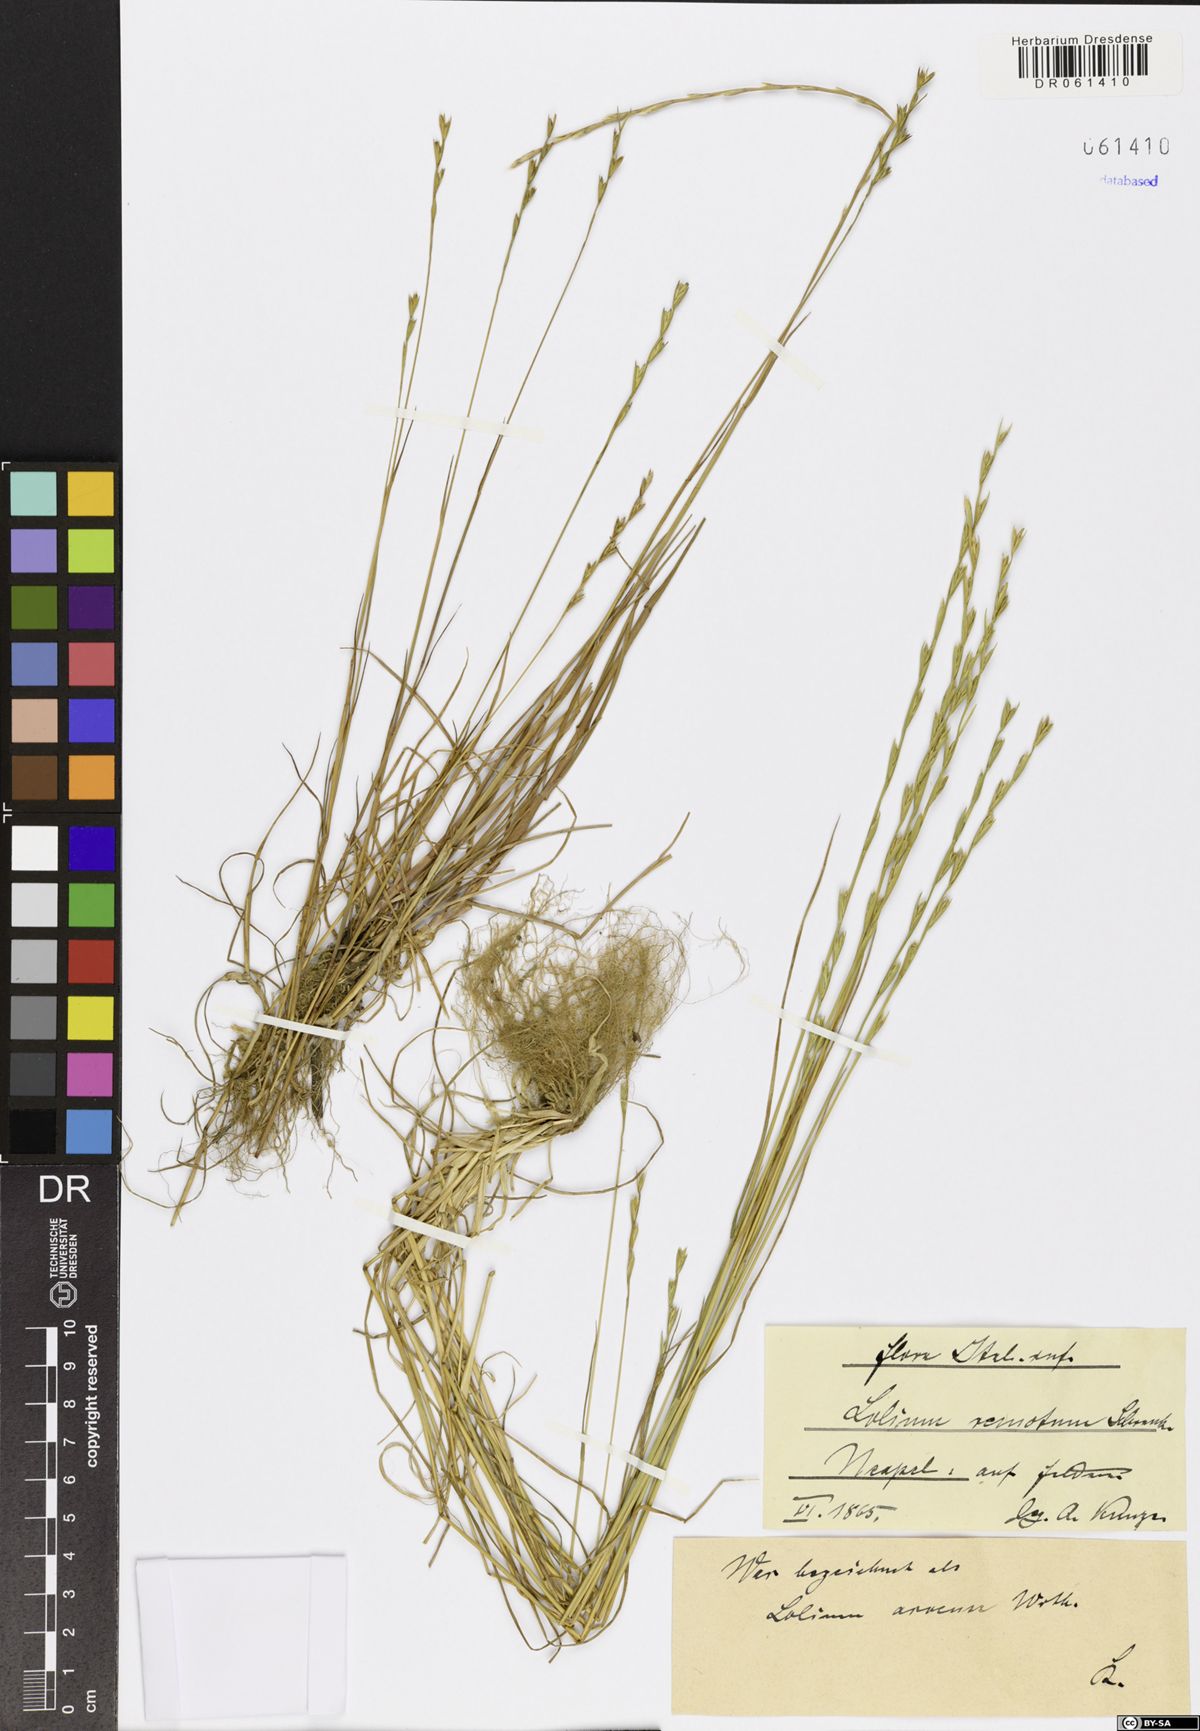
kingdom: Plantae
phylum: Tracheophyta
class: Liliopsida
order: Poales
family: Poaceae
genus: Lolium
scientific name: Lolium remotum
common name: Flaxfield rye-grass
